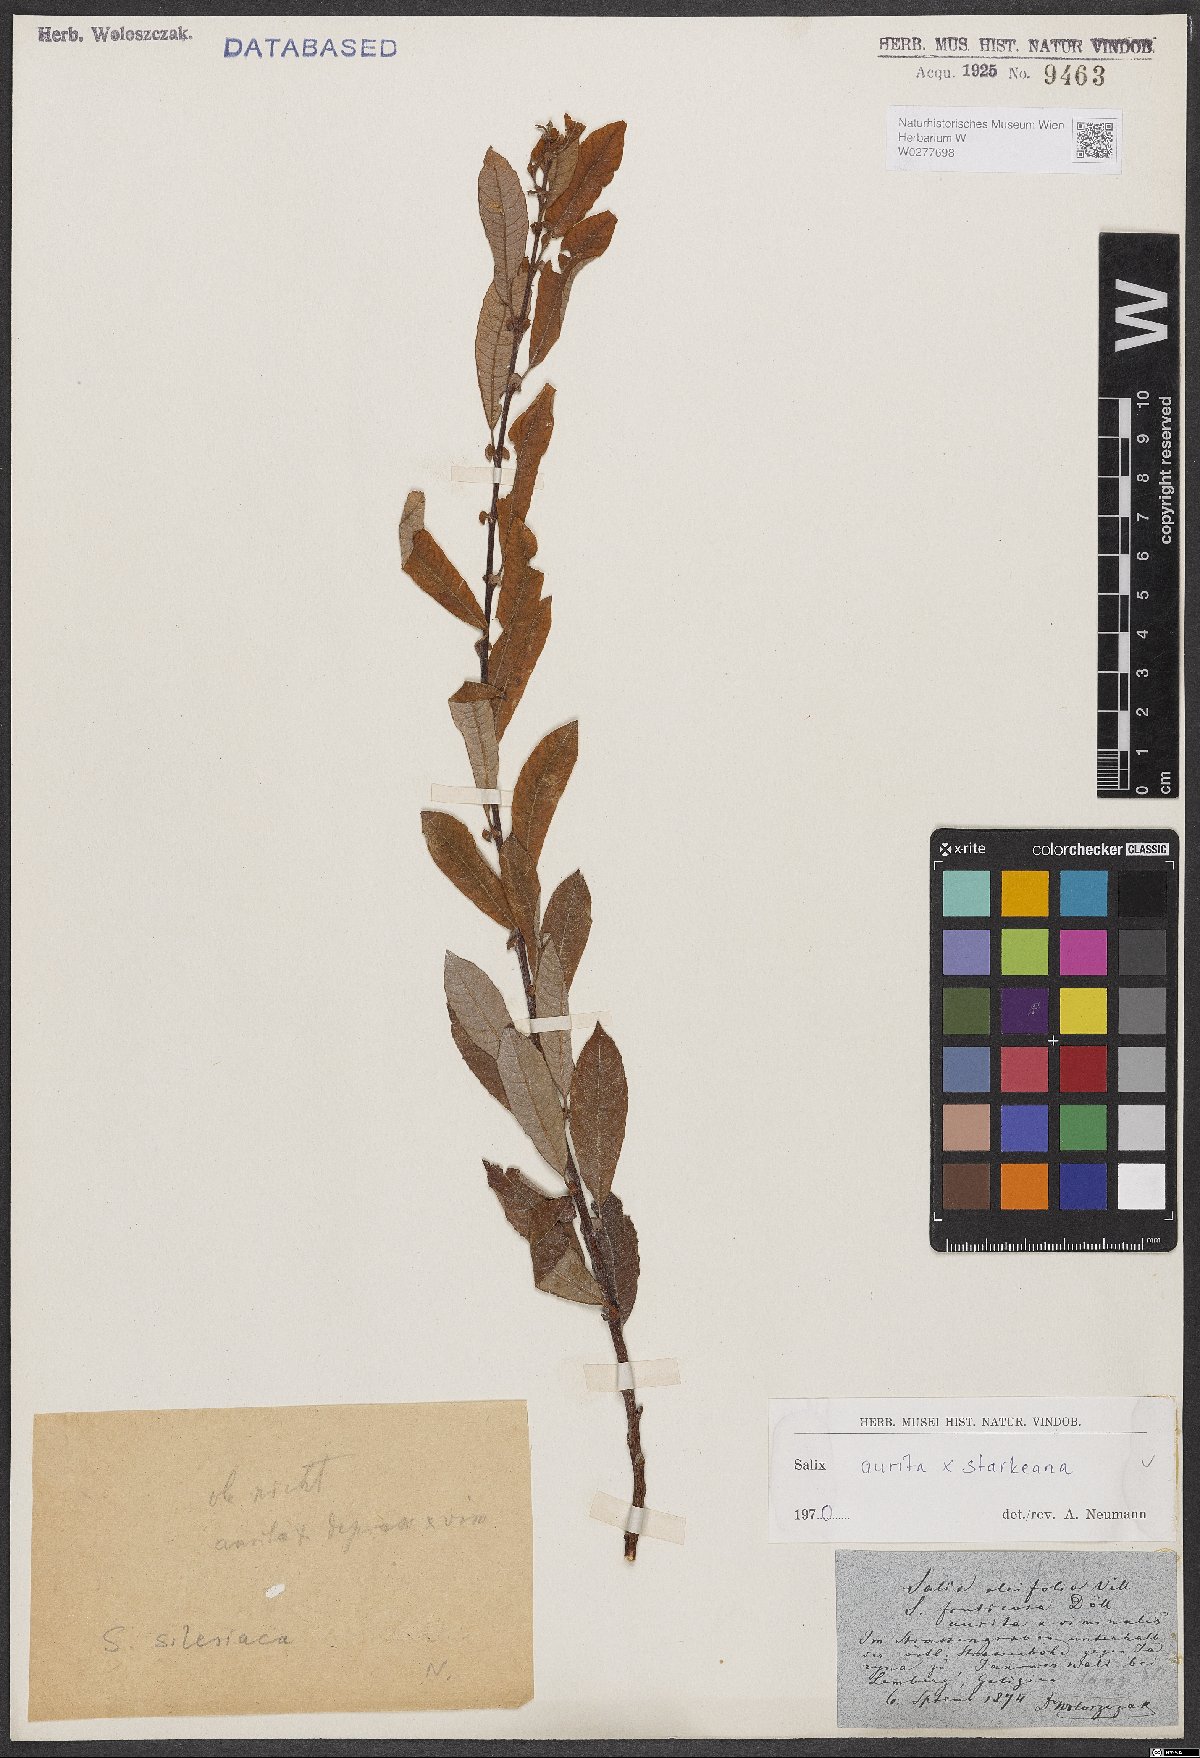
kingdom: Plantae
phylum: Tracheophyta
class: Magnoliopsida
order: Malpighiales
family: Salicaceae
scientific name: Salicaceae
